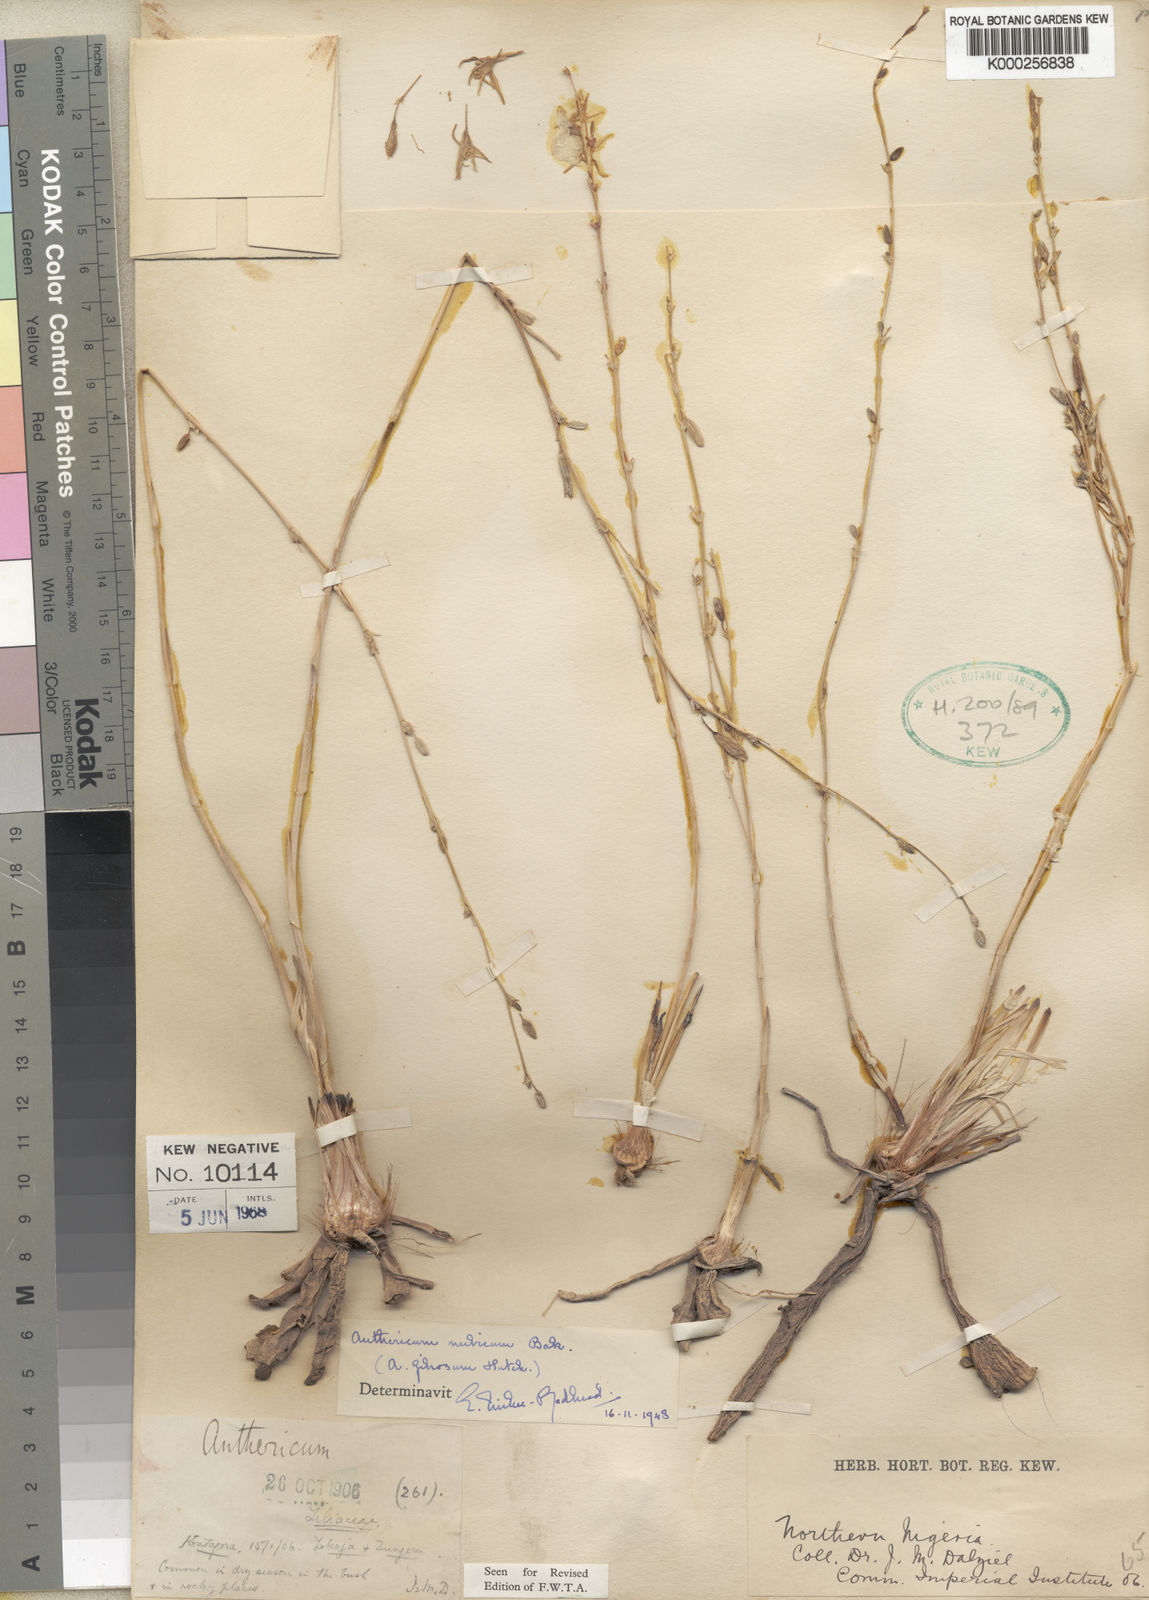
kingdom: Plantae
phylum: Tracheophyta
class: Liliopsida
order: Asparagales
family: Asparagaceae
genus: Chlorophytum
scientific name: Chlorophytum nubicum
